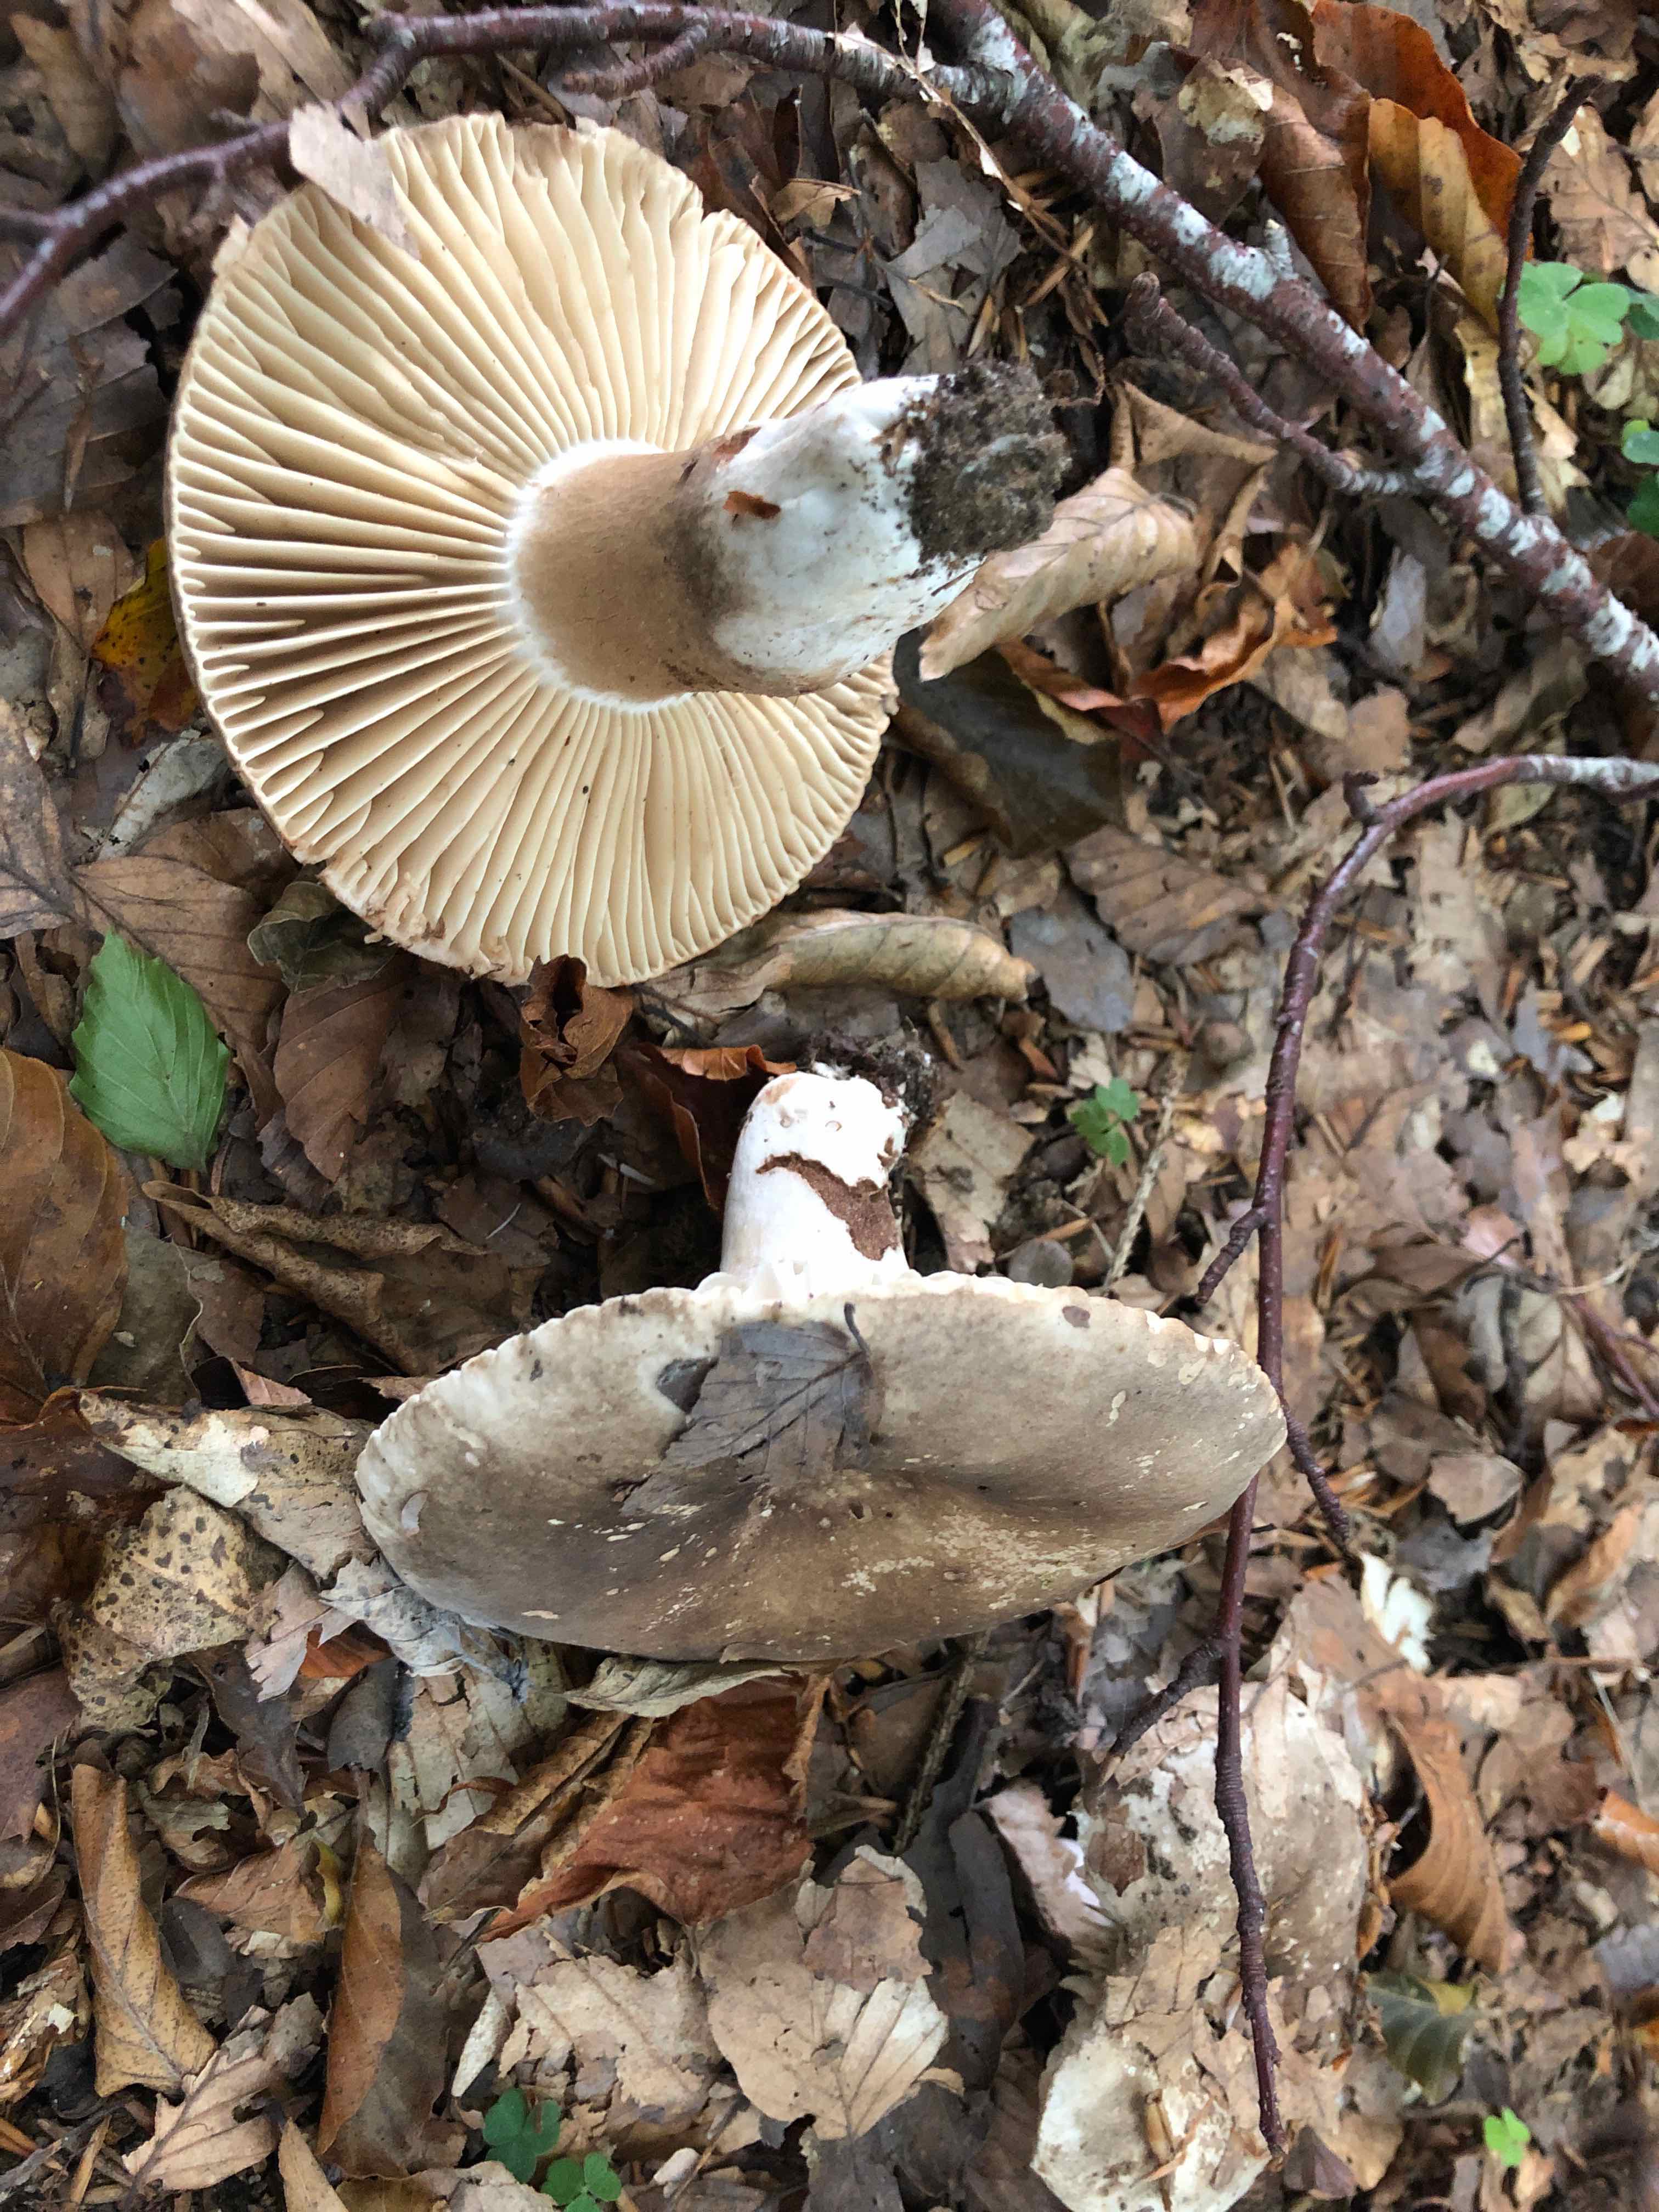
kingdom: Fungi
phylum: Basidiomycota
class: Agaricomycetes
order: Russulales
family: Russulaceae
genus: Russula
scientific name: Russula adusta
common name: sværtende skørhat
